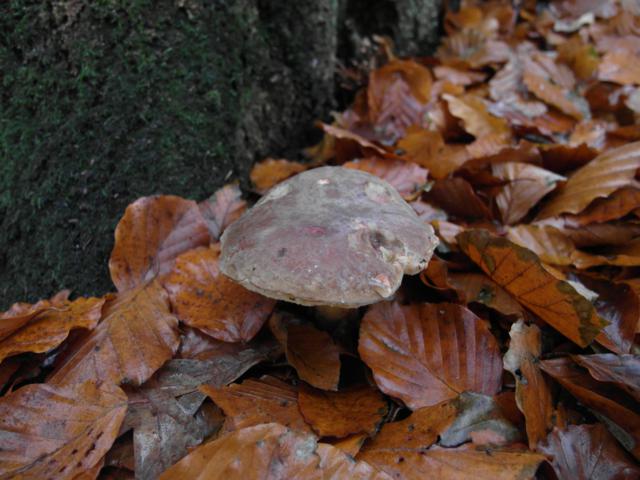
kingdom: Fungi
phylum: Basidiomycota
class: Agaricomycetes
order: Boletales
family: Boletaceae
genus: Xerocomellus
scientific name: Xerocomellus pruinatus
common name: dugget rørhat
